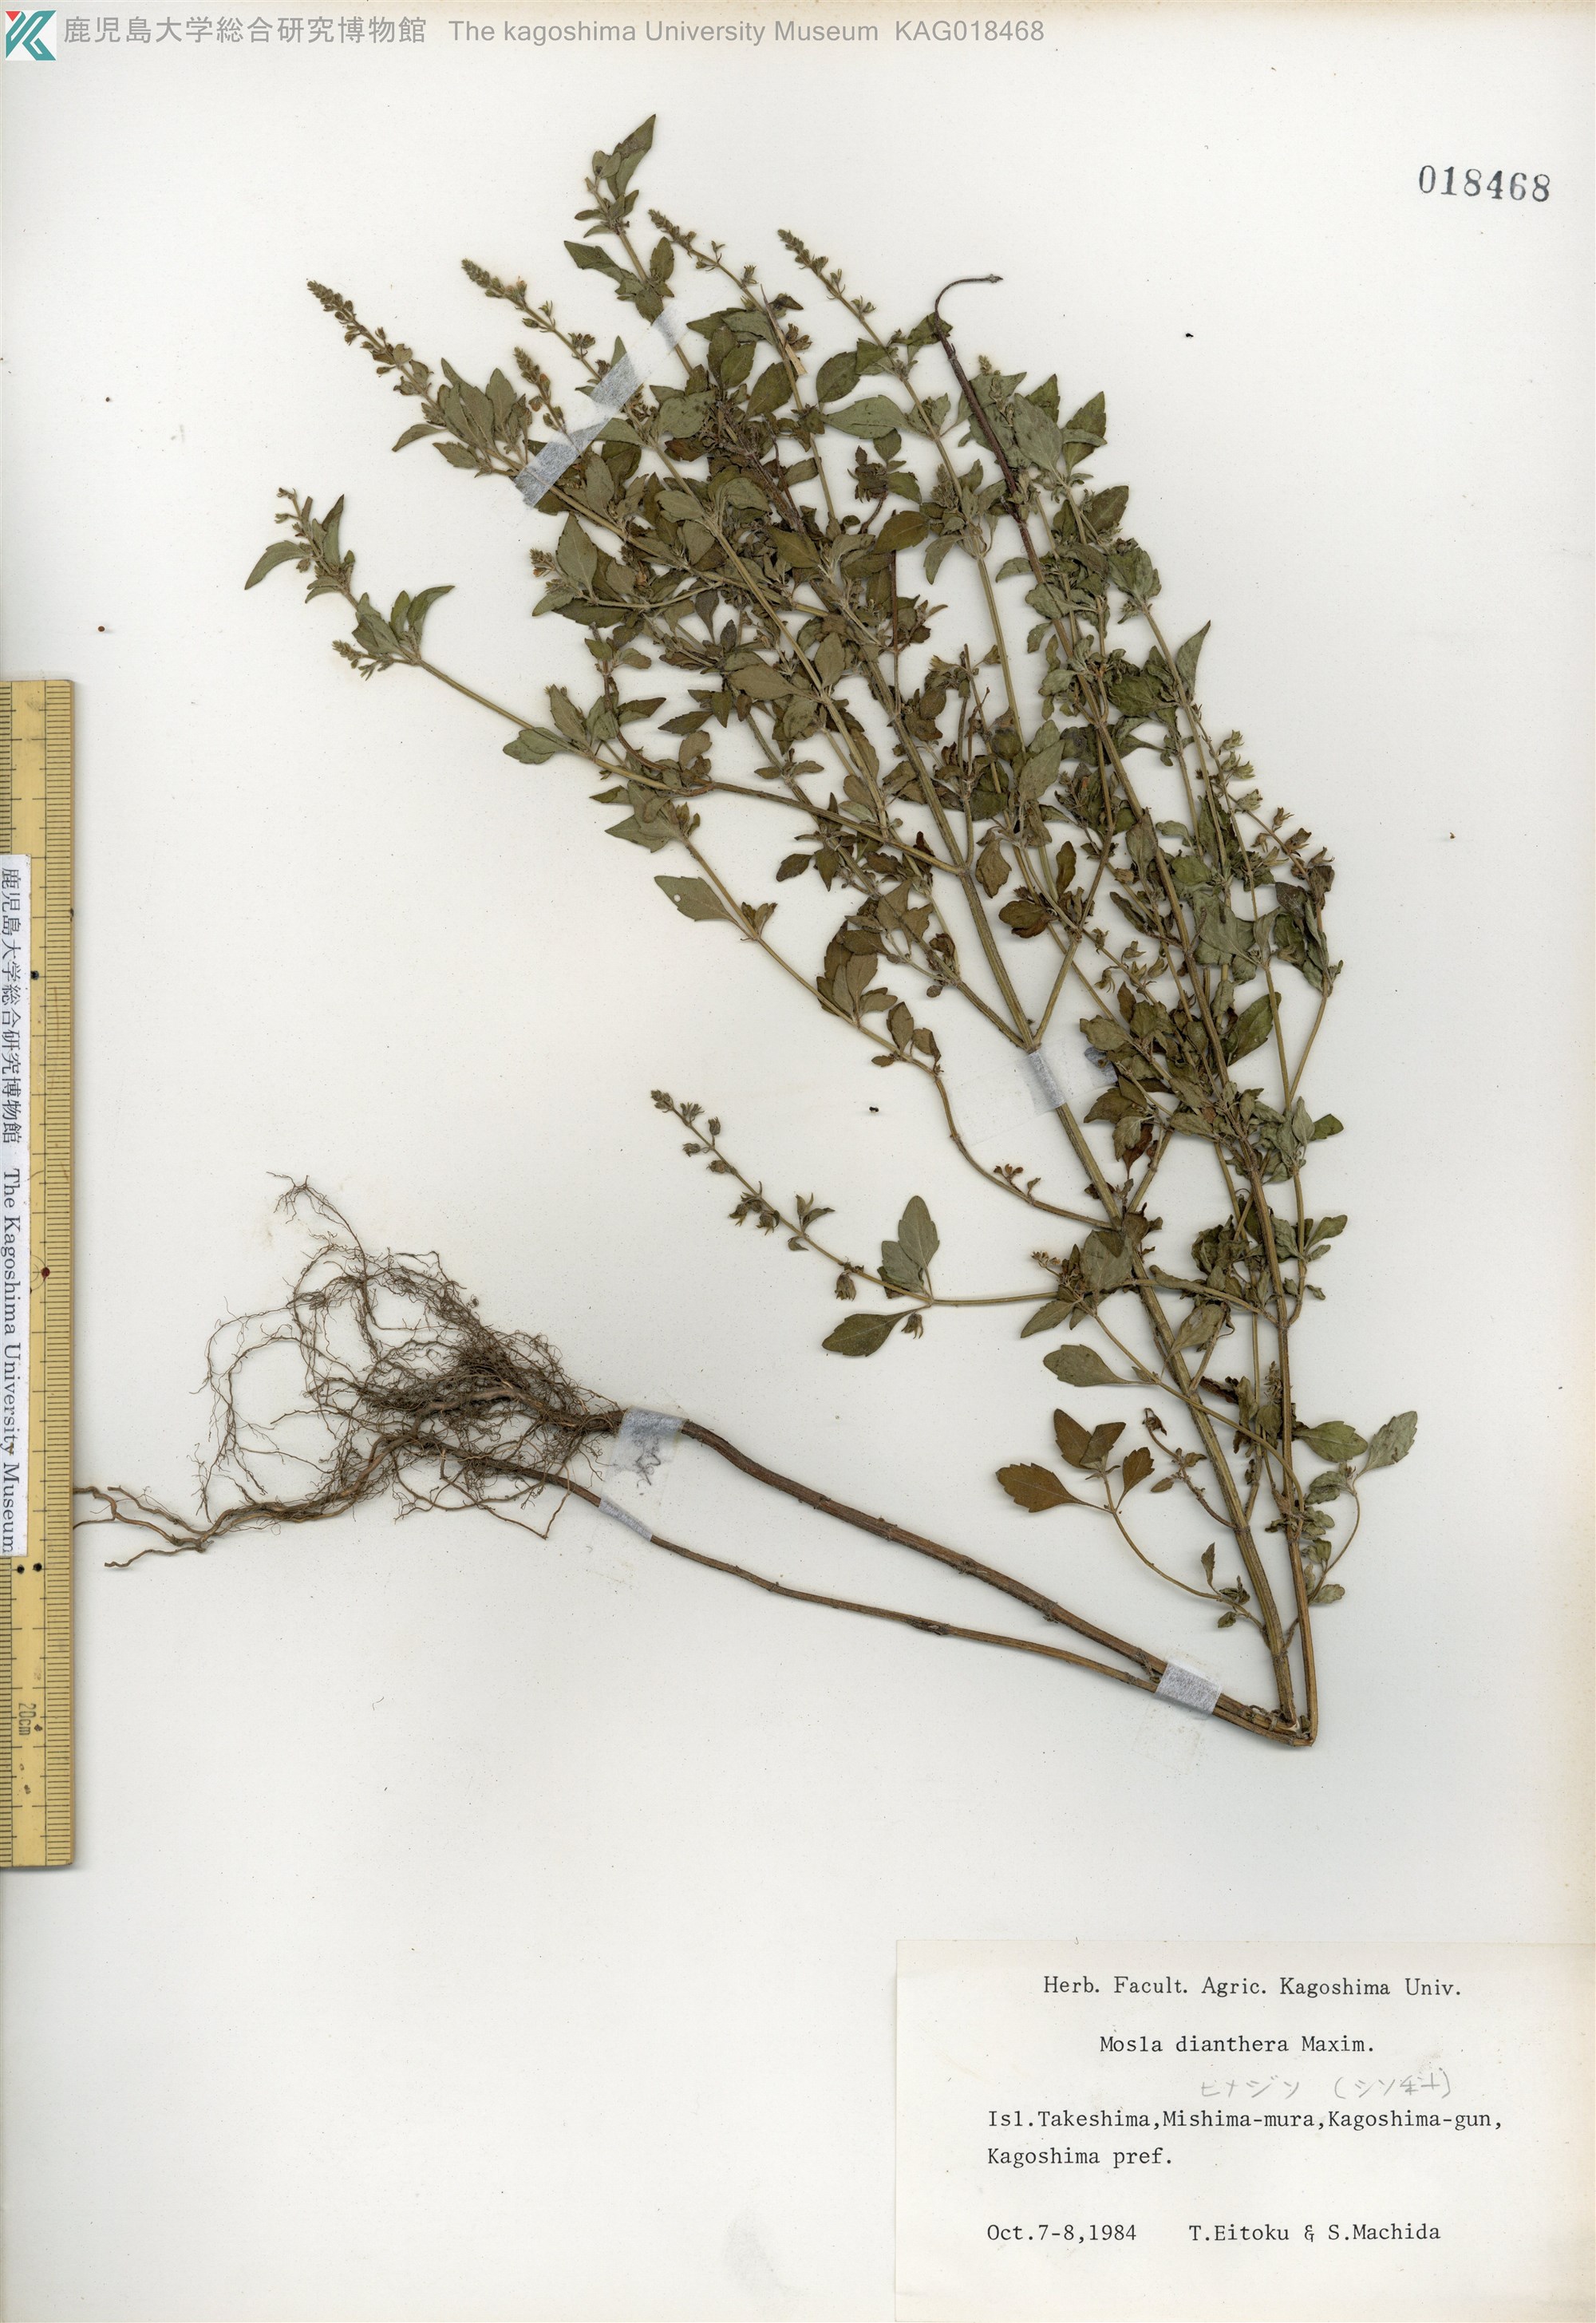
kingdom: Plantae
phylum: Tracheophyta
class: Magnoliopsida
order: Lamiales
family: Lamiaceae
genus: Mosla
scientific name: Mosla dianthera
